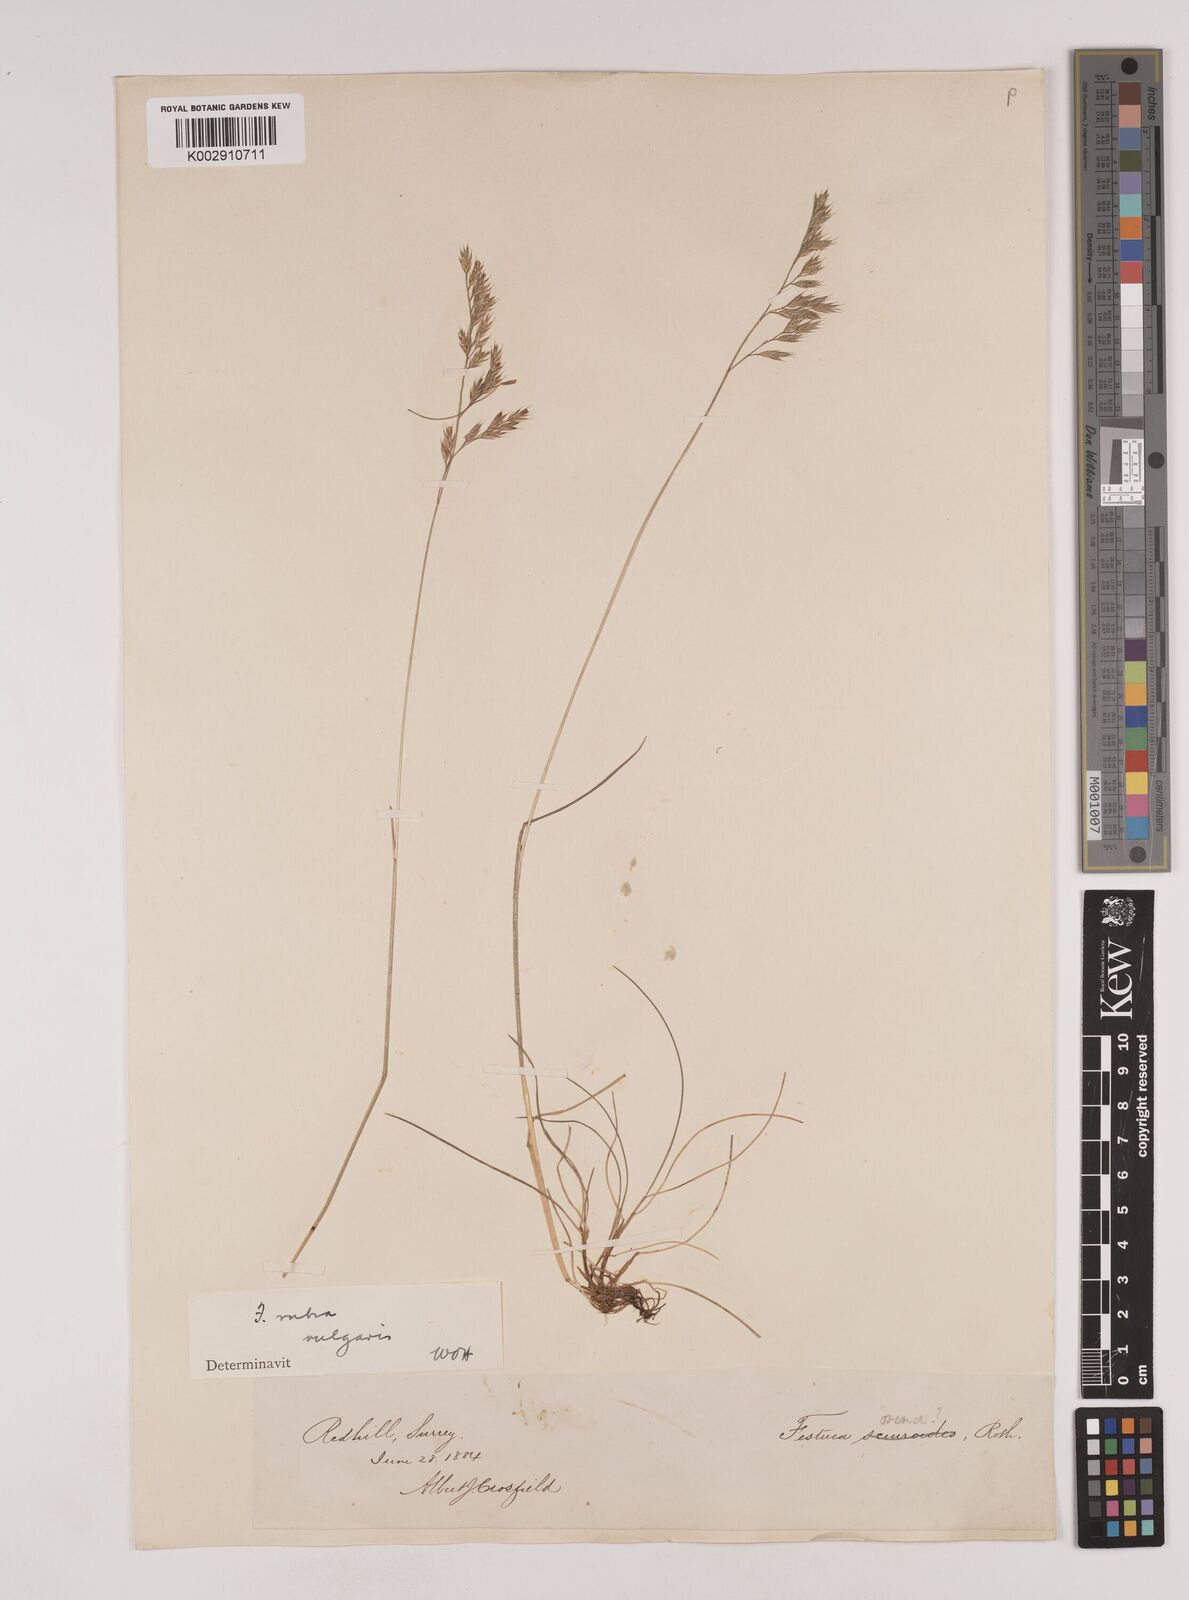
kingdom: Plantae
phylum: Tracheophyta
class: Liliopsida
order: Poales
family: Poaceae
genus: Festuca
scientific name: Festuca rubra
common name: Red fescue
